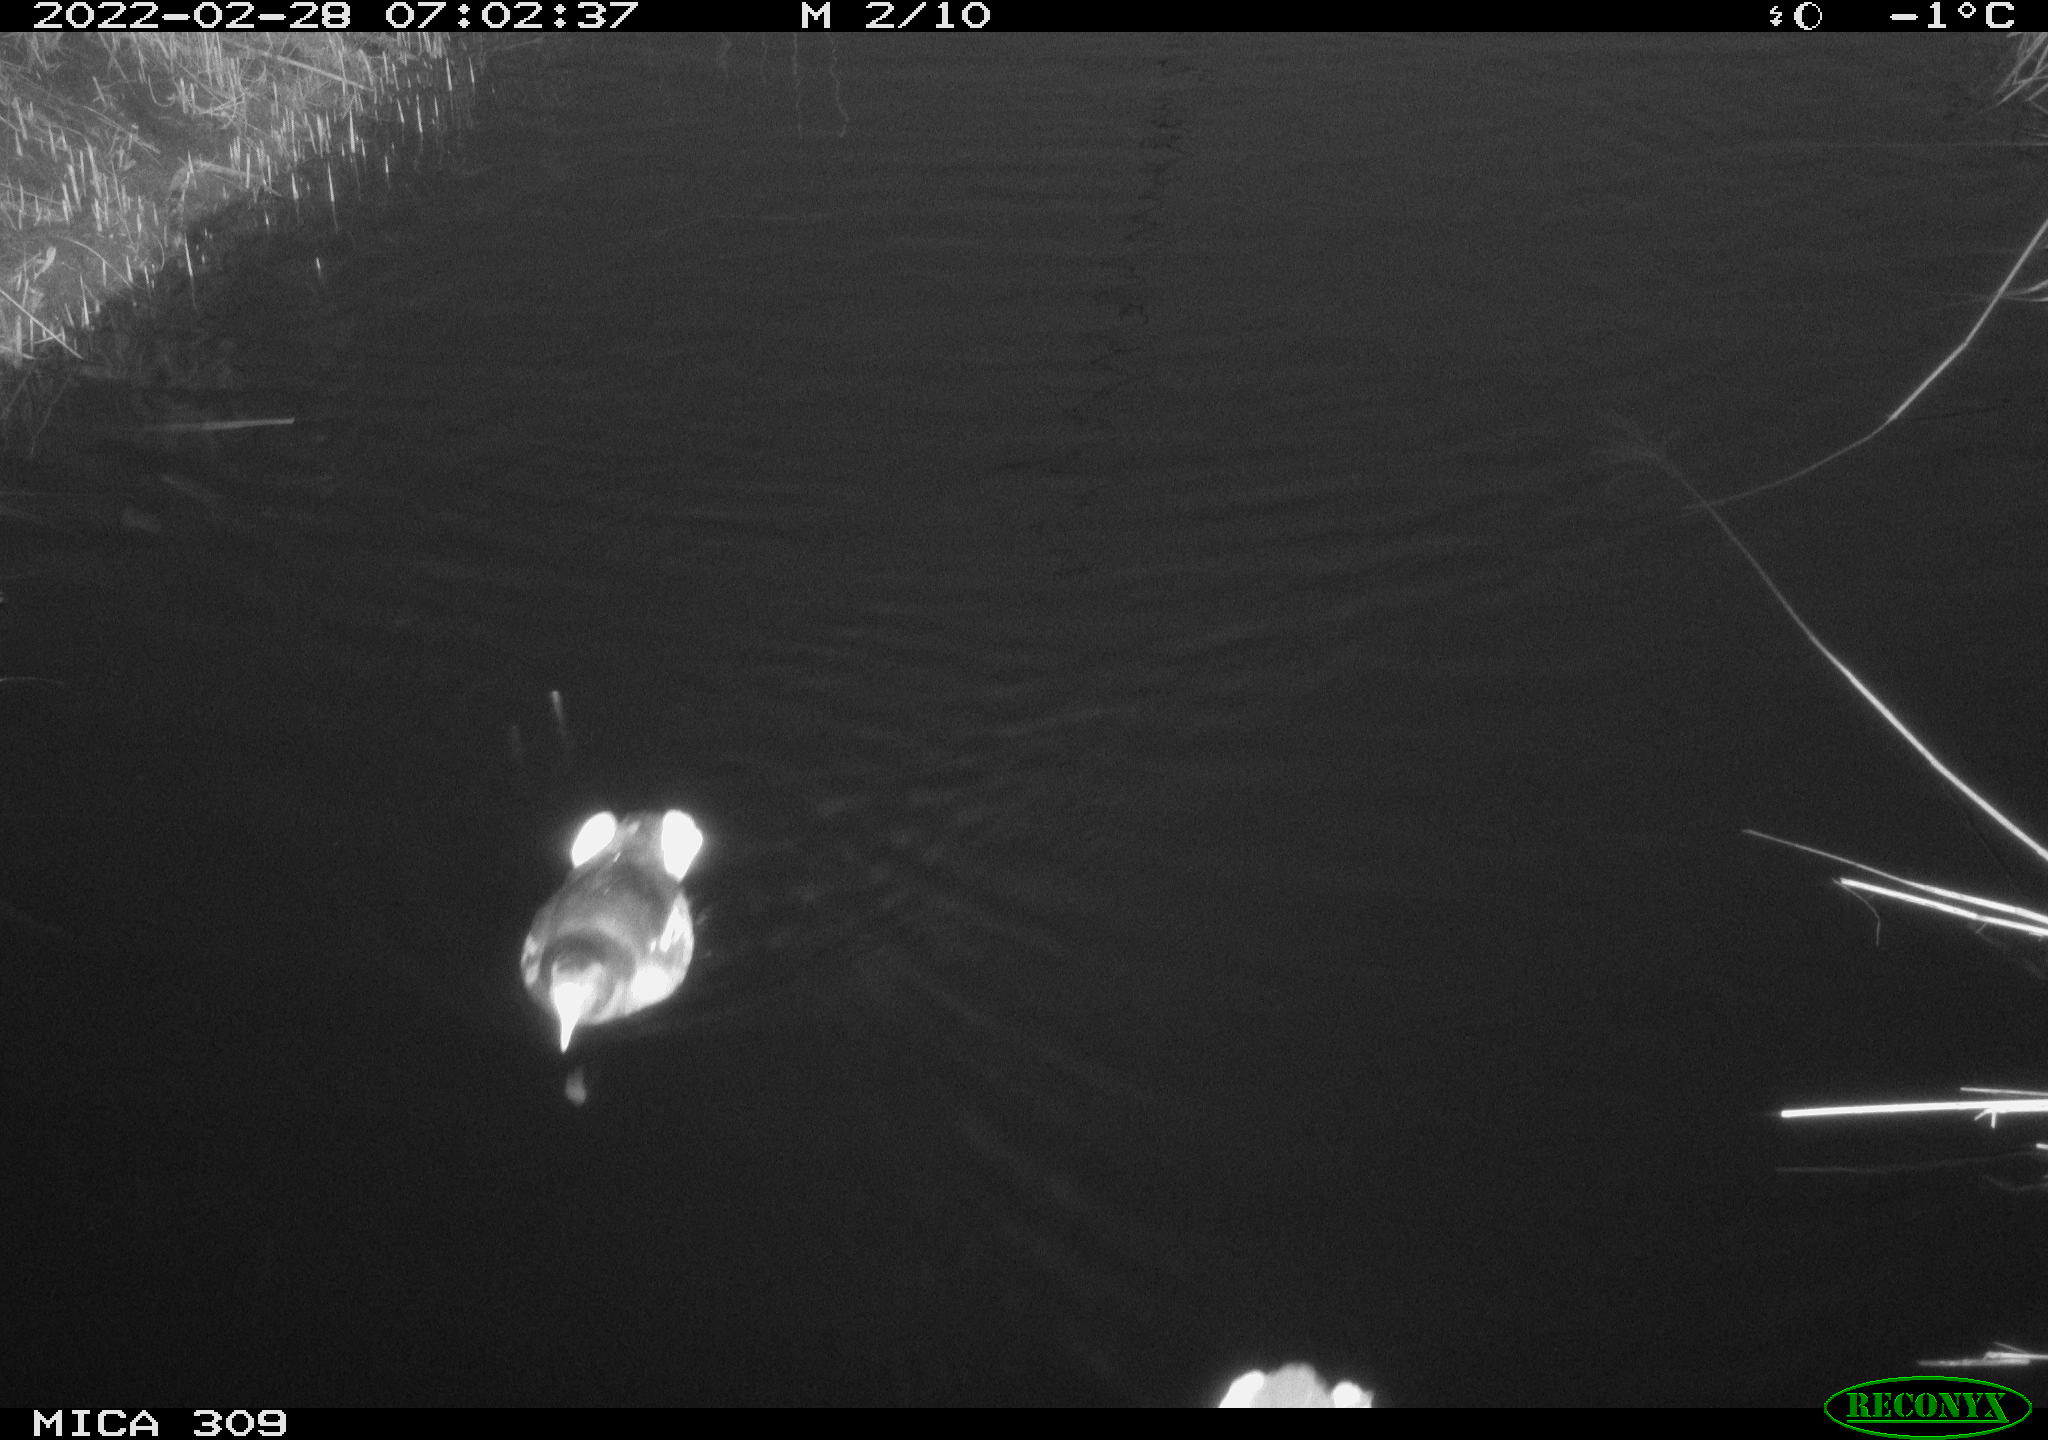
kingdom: Animalia
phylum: Chordata
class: Aves
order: Gruiformes
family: Rallidae
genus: Gallinula
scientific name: Gallinula chloropus
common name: Common moorhen
